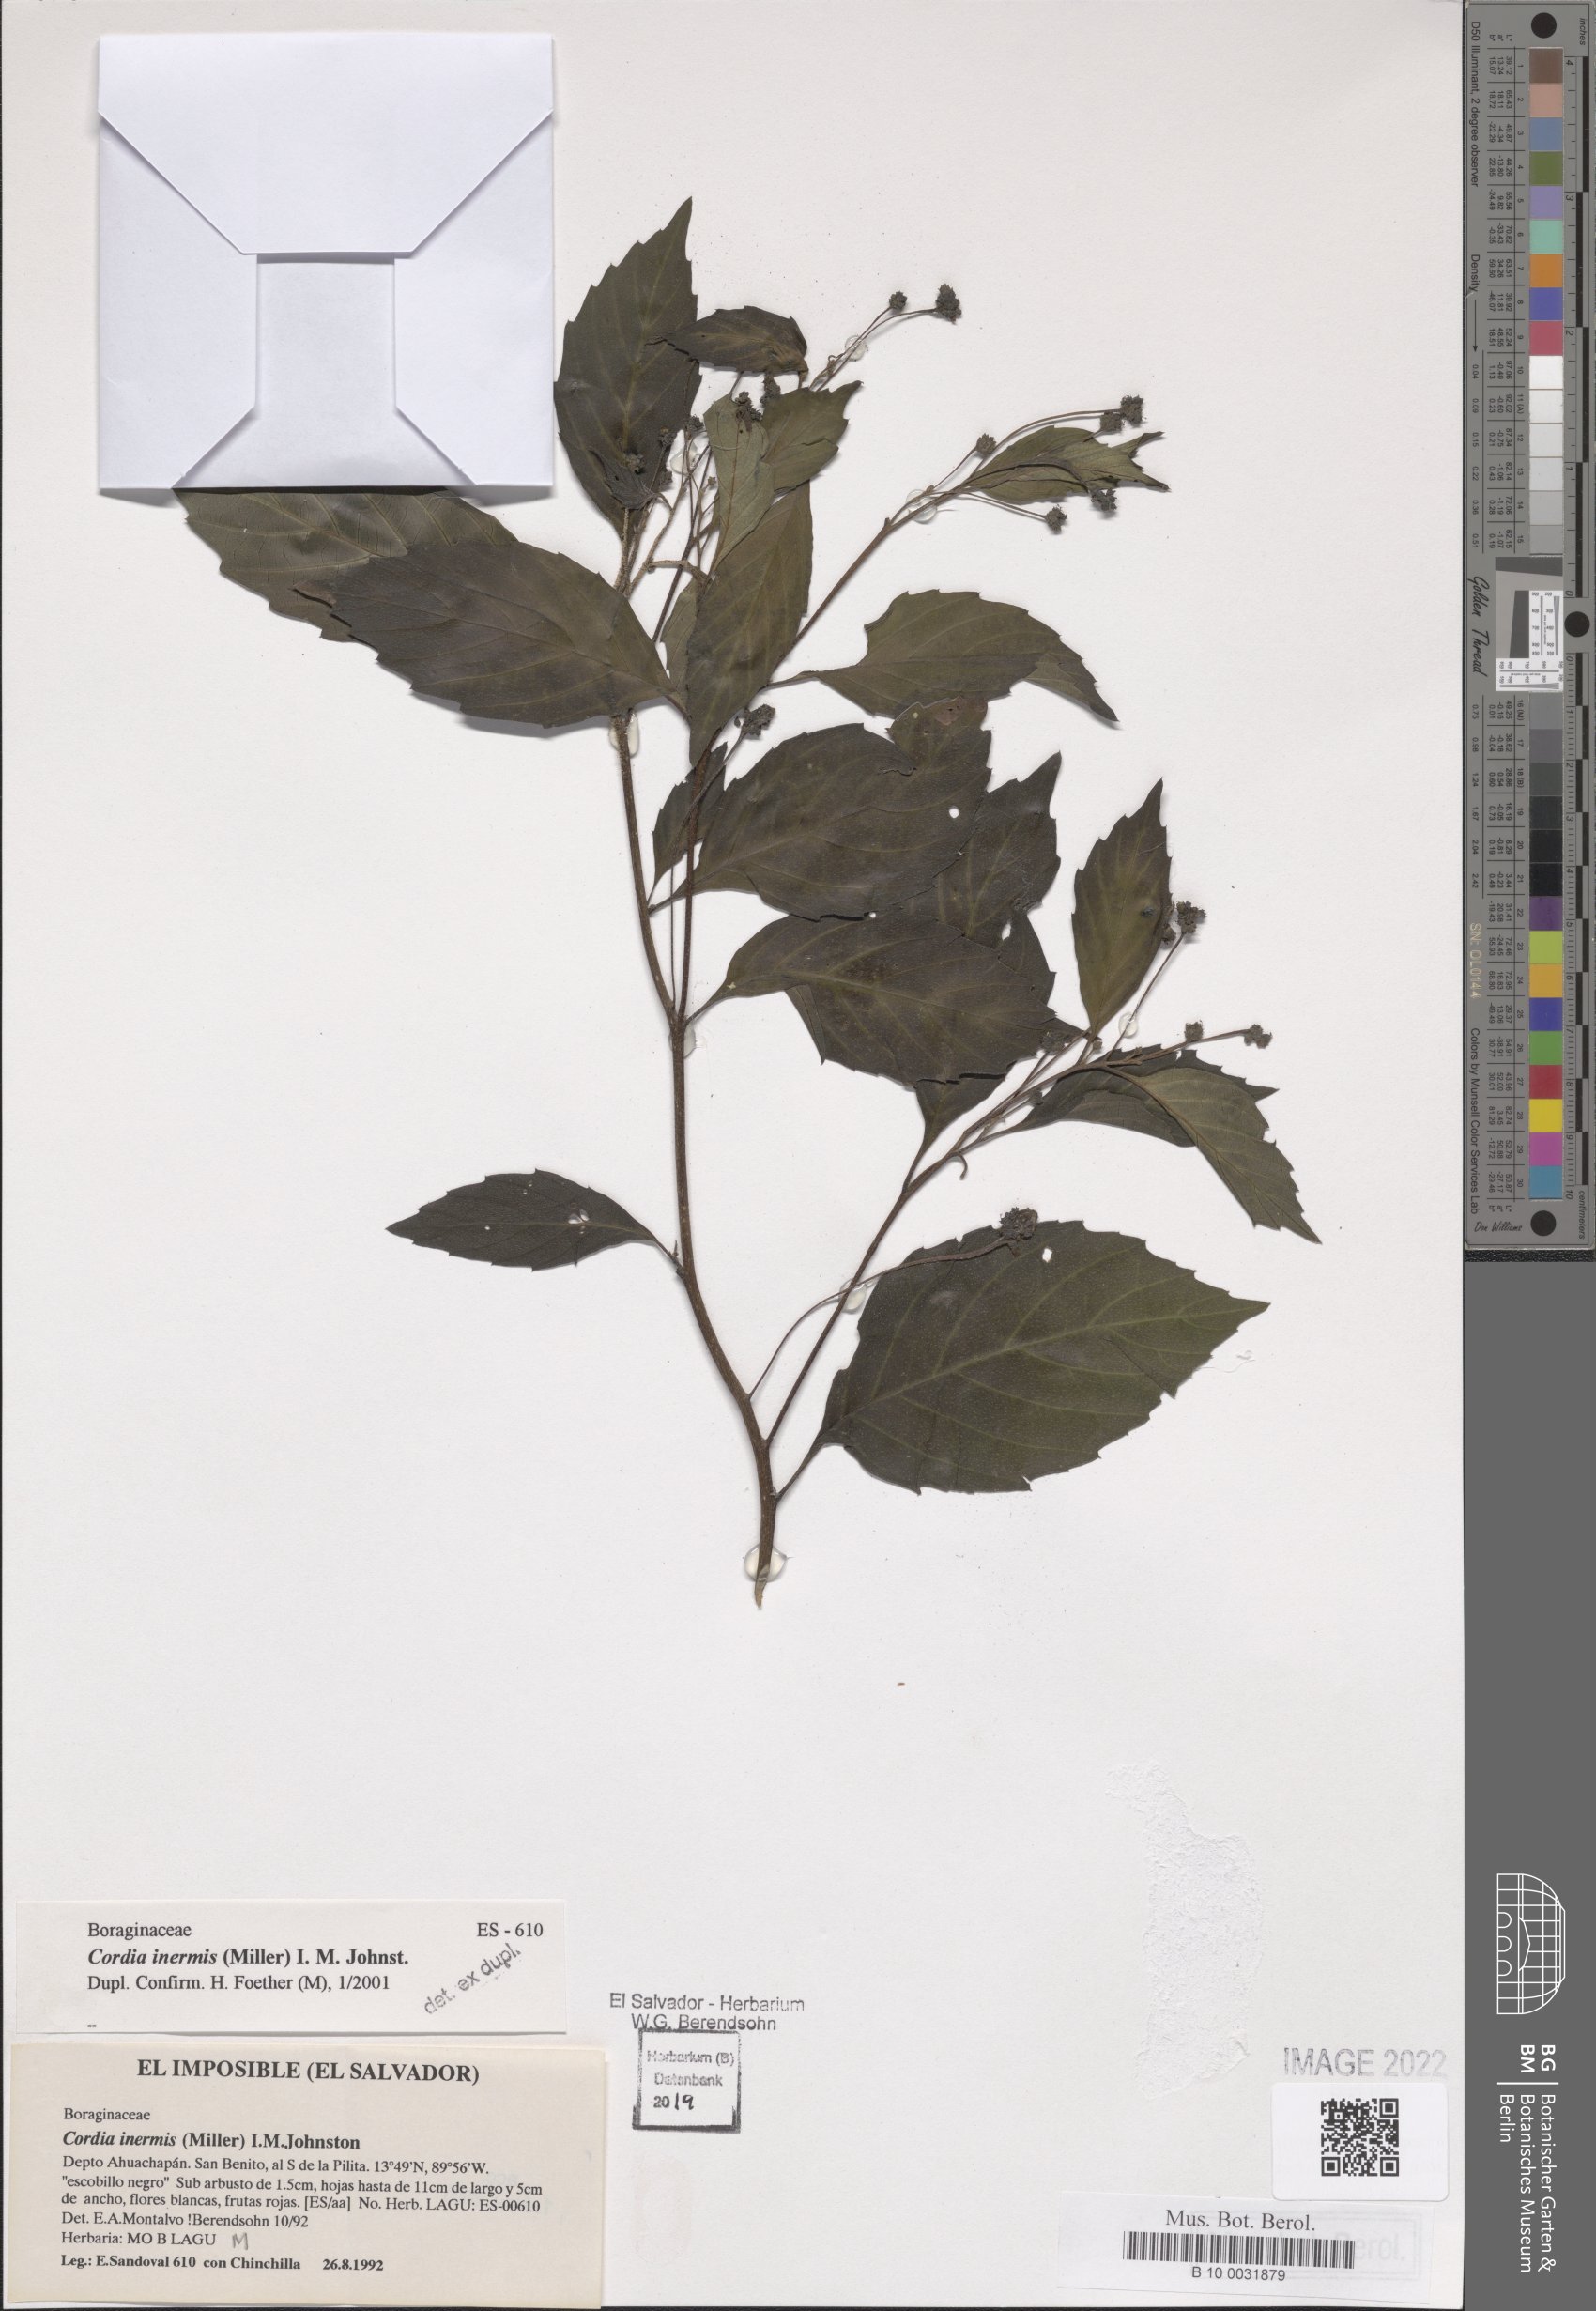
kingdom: Plantae
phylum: Tracheophyta
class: Magnoliopsida
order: Boraginales
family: Cordiaceae
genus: Varronia
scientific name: Varronia inermis
